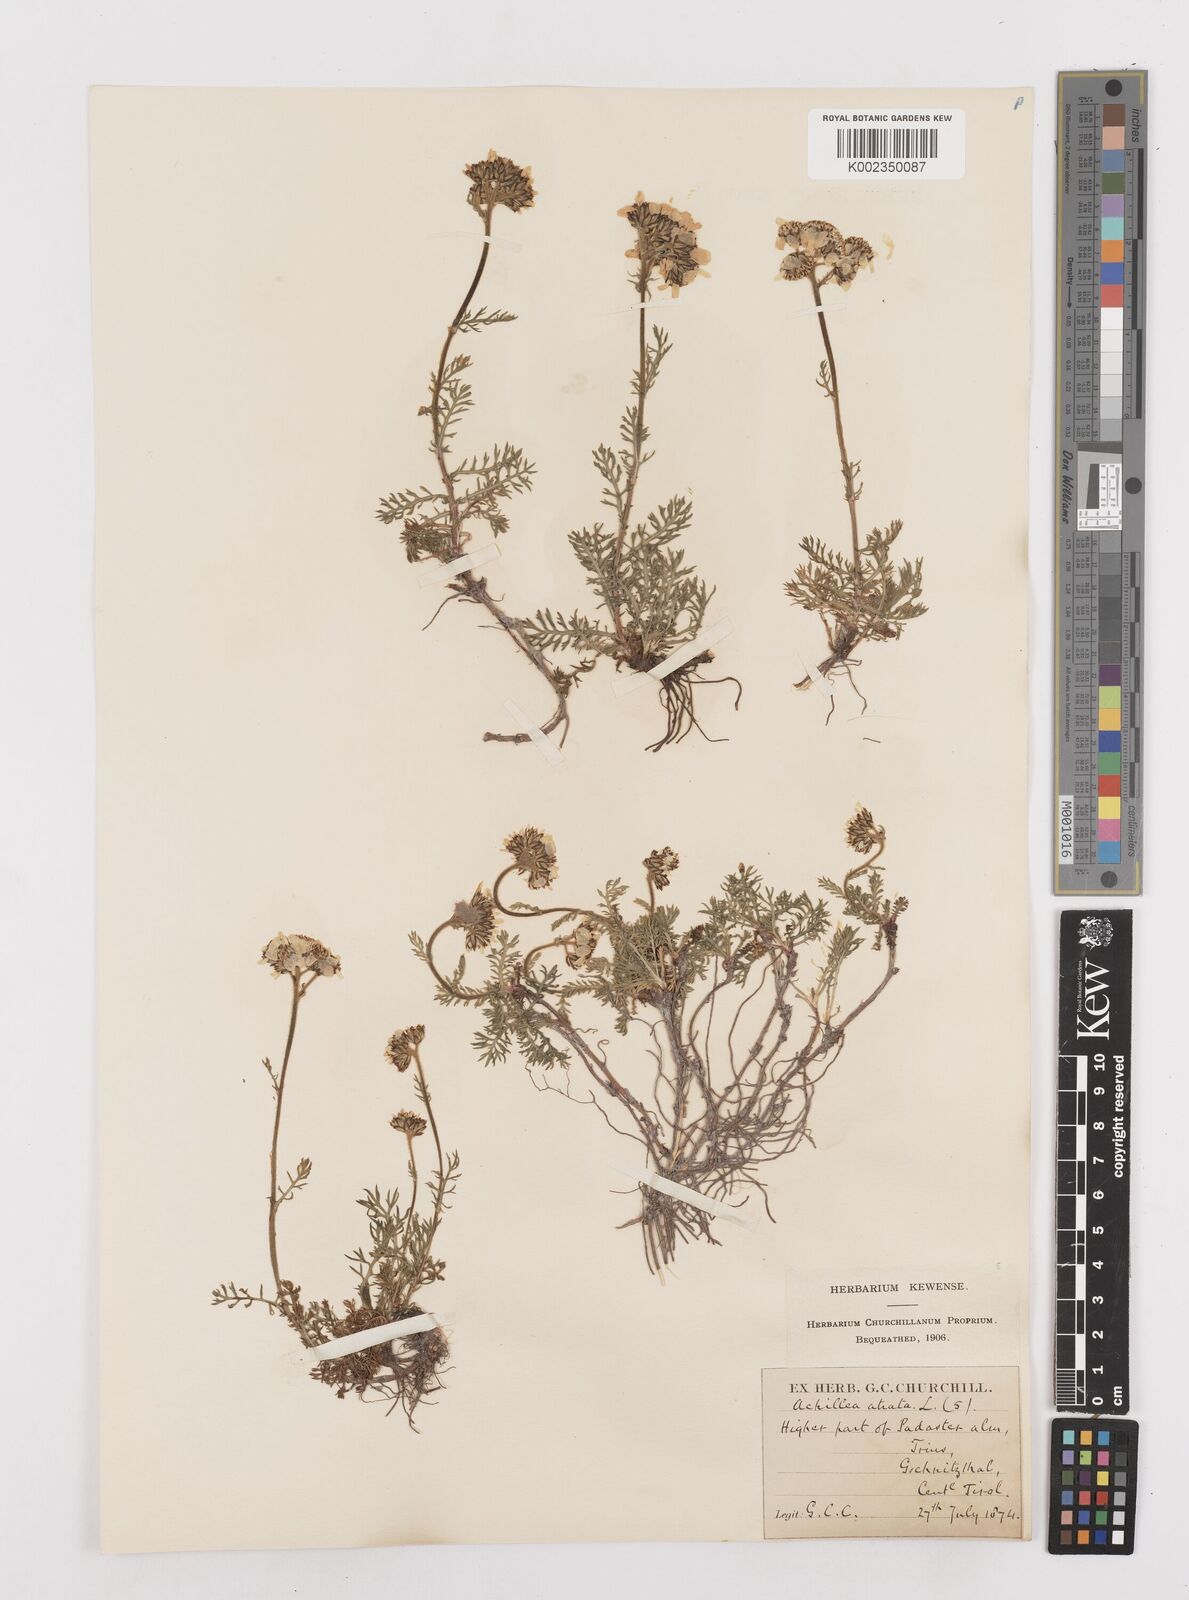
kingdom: Plantae
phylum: Tracheophyta
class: Magnoliopsida
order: Asterales
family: Asteraceae
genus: Achillea
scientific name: Achillea atrata
